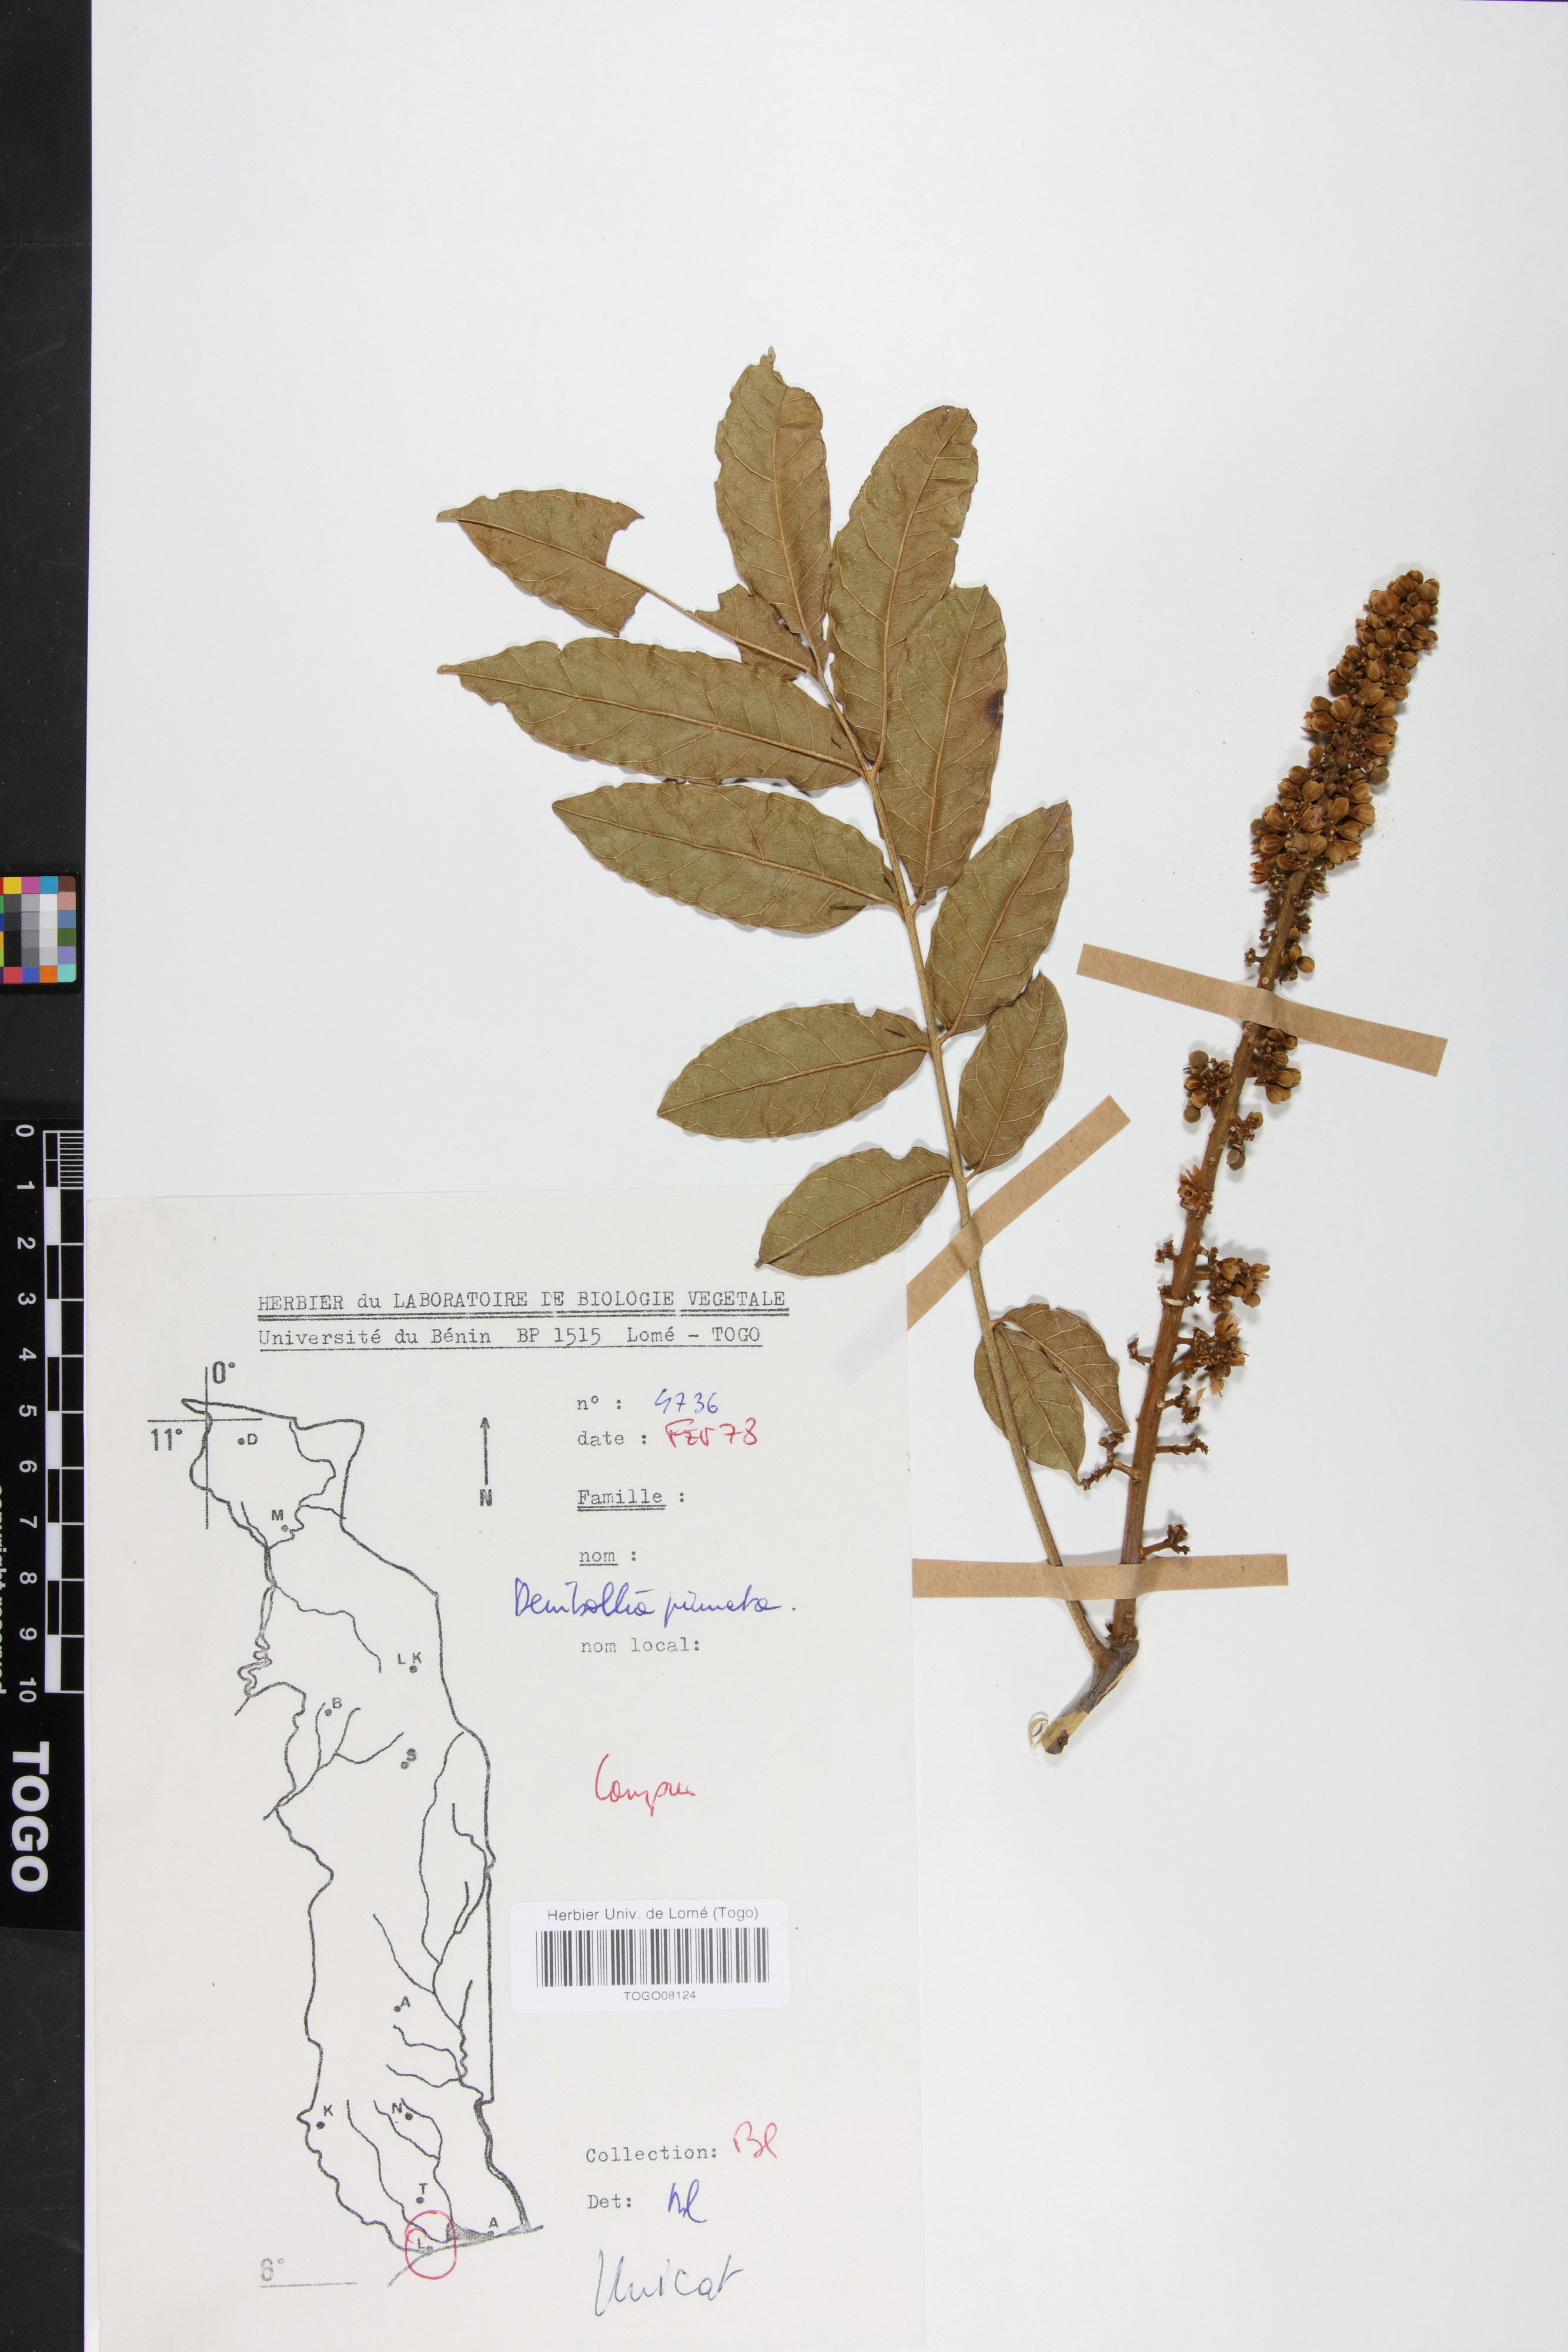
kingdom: Plantae
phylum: Tracheophyta
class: Magnoliopsida
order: Sapindales
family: Sapindaceae
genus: Deinbollia
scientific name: Deinbollia pinnata
